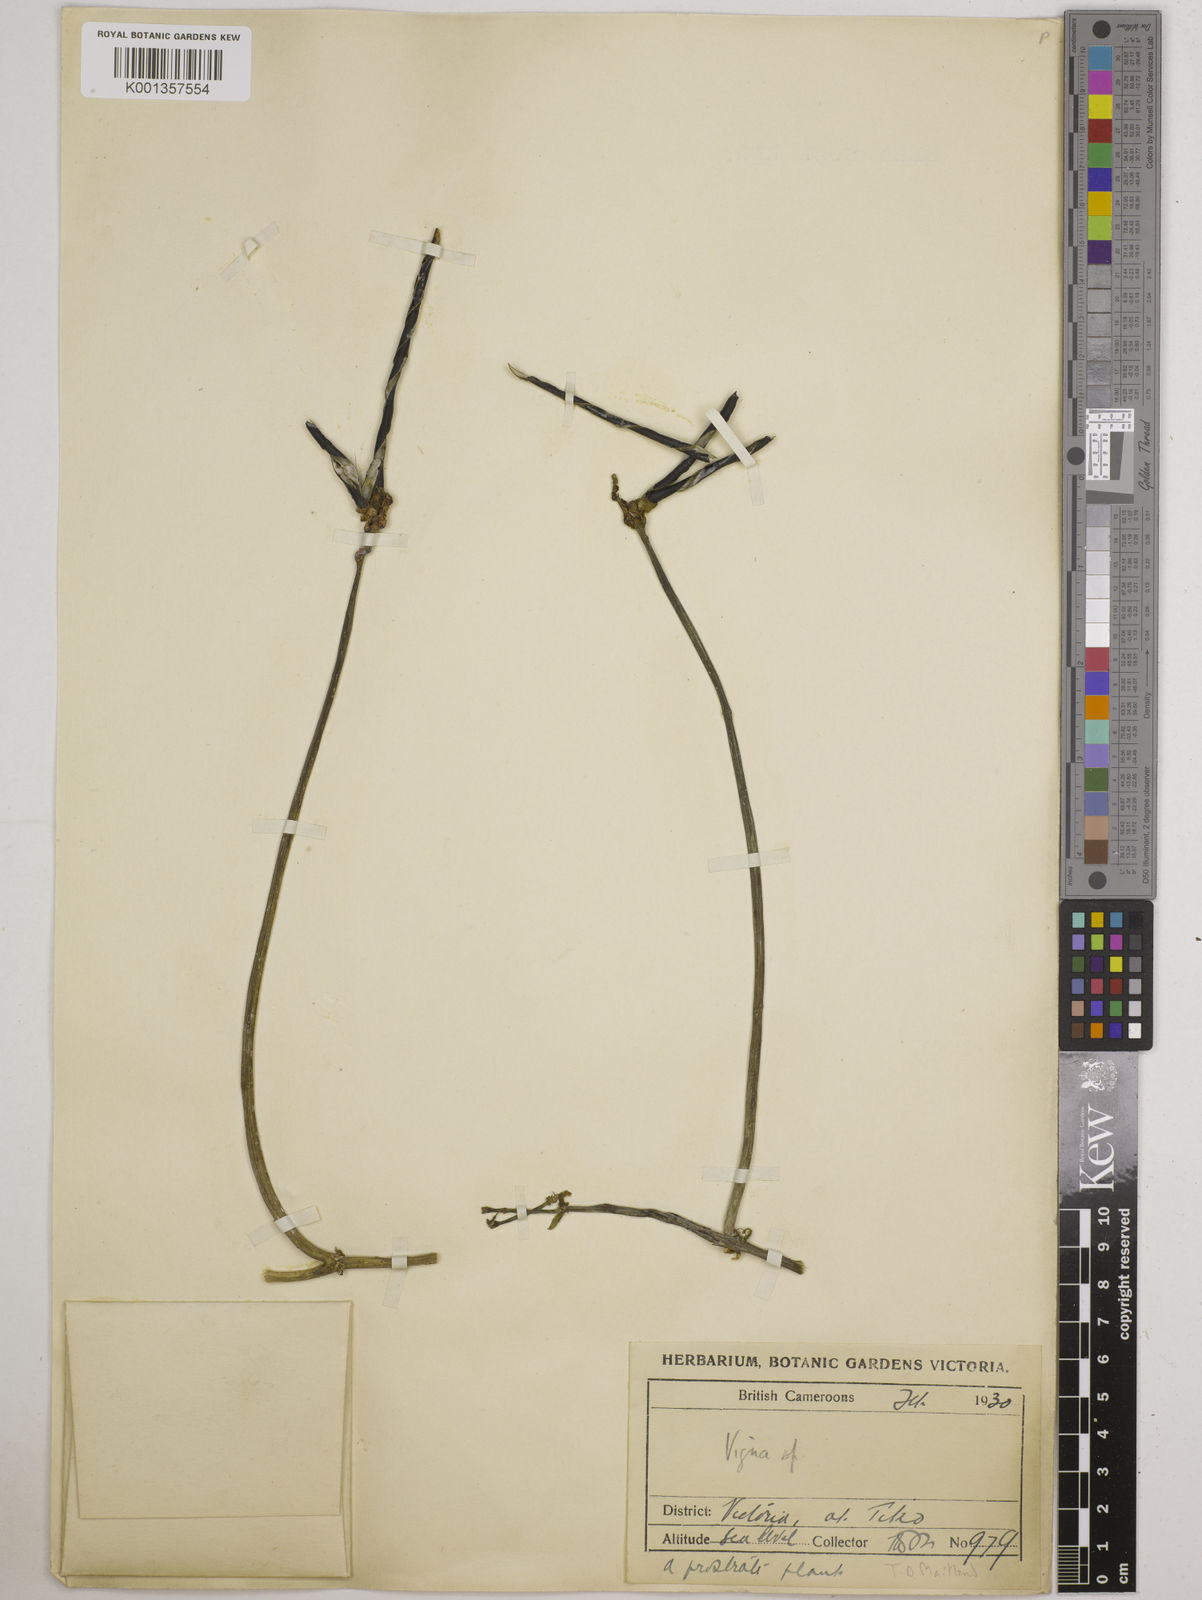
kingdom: Plantae
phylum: Tracheophyta
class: Magnoliopsida
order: Fabales
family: Fabaceae
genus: Vigna
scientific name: Vigna
